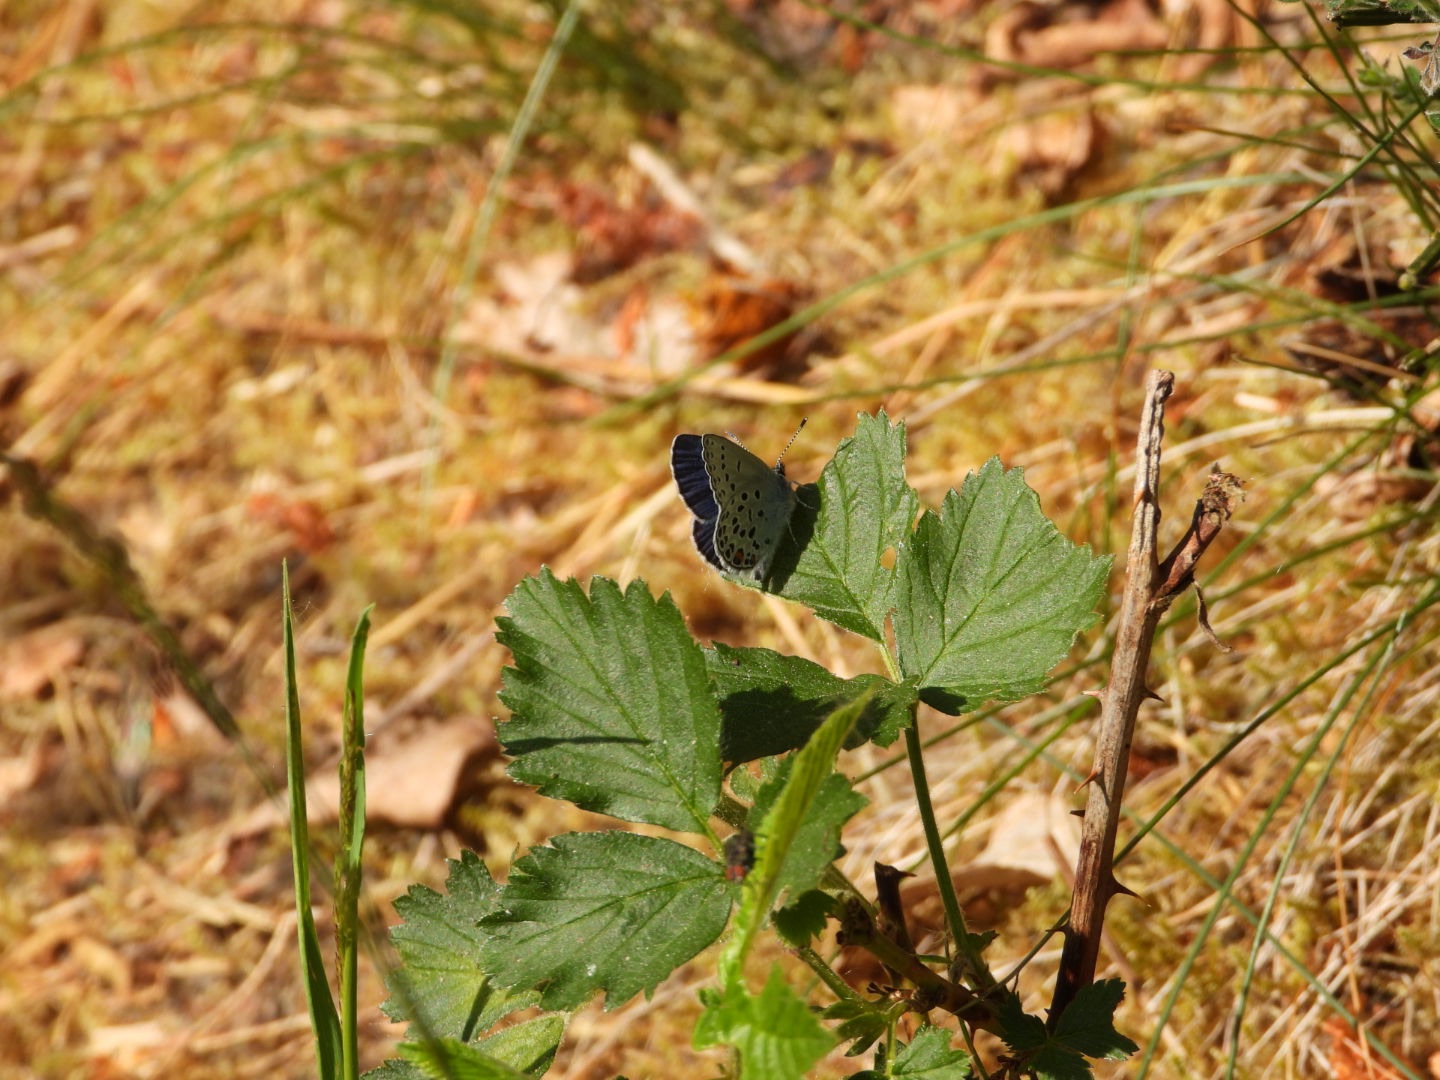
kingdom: Animalia
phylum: Arthropoda
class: Insecta
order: Lepidoptera
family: Lycaenidae
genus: Vacciniina
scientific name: Vacciniina optilete
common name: Bølleblåfugl
